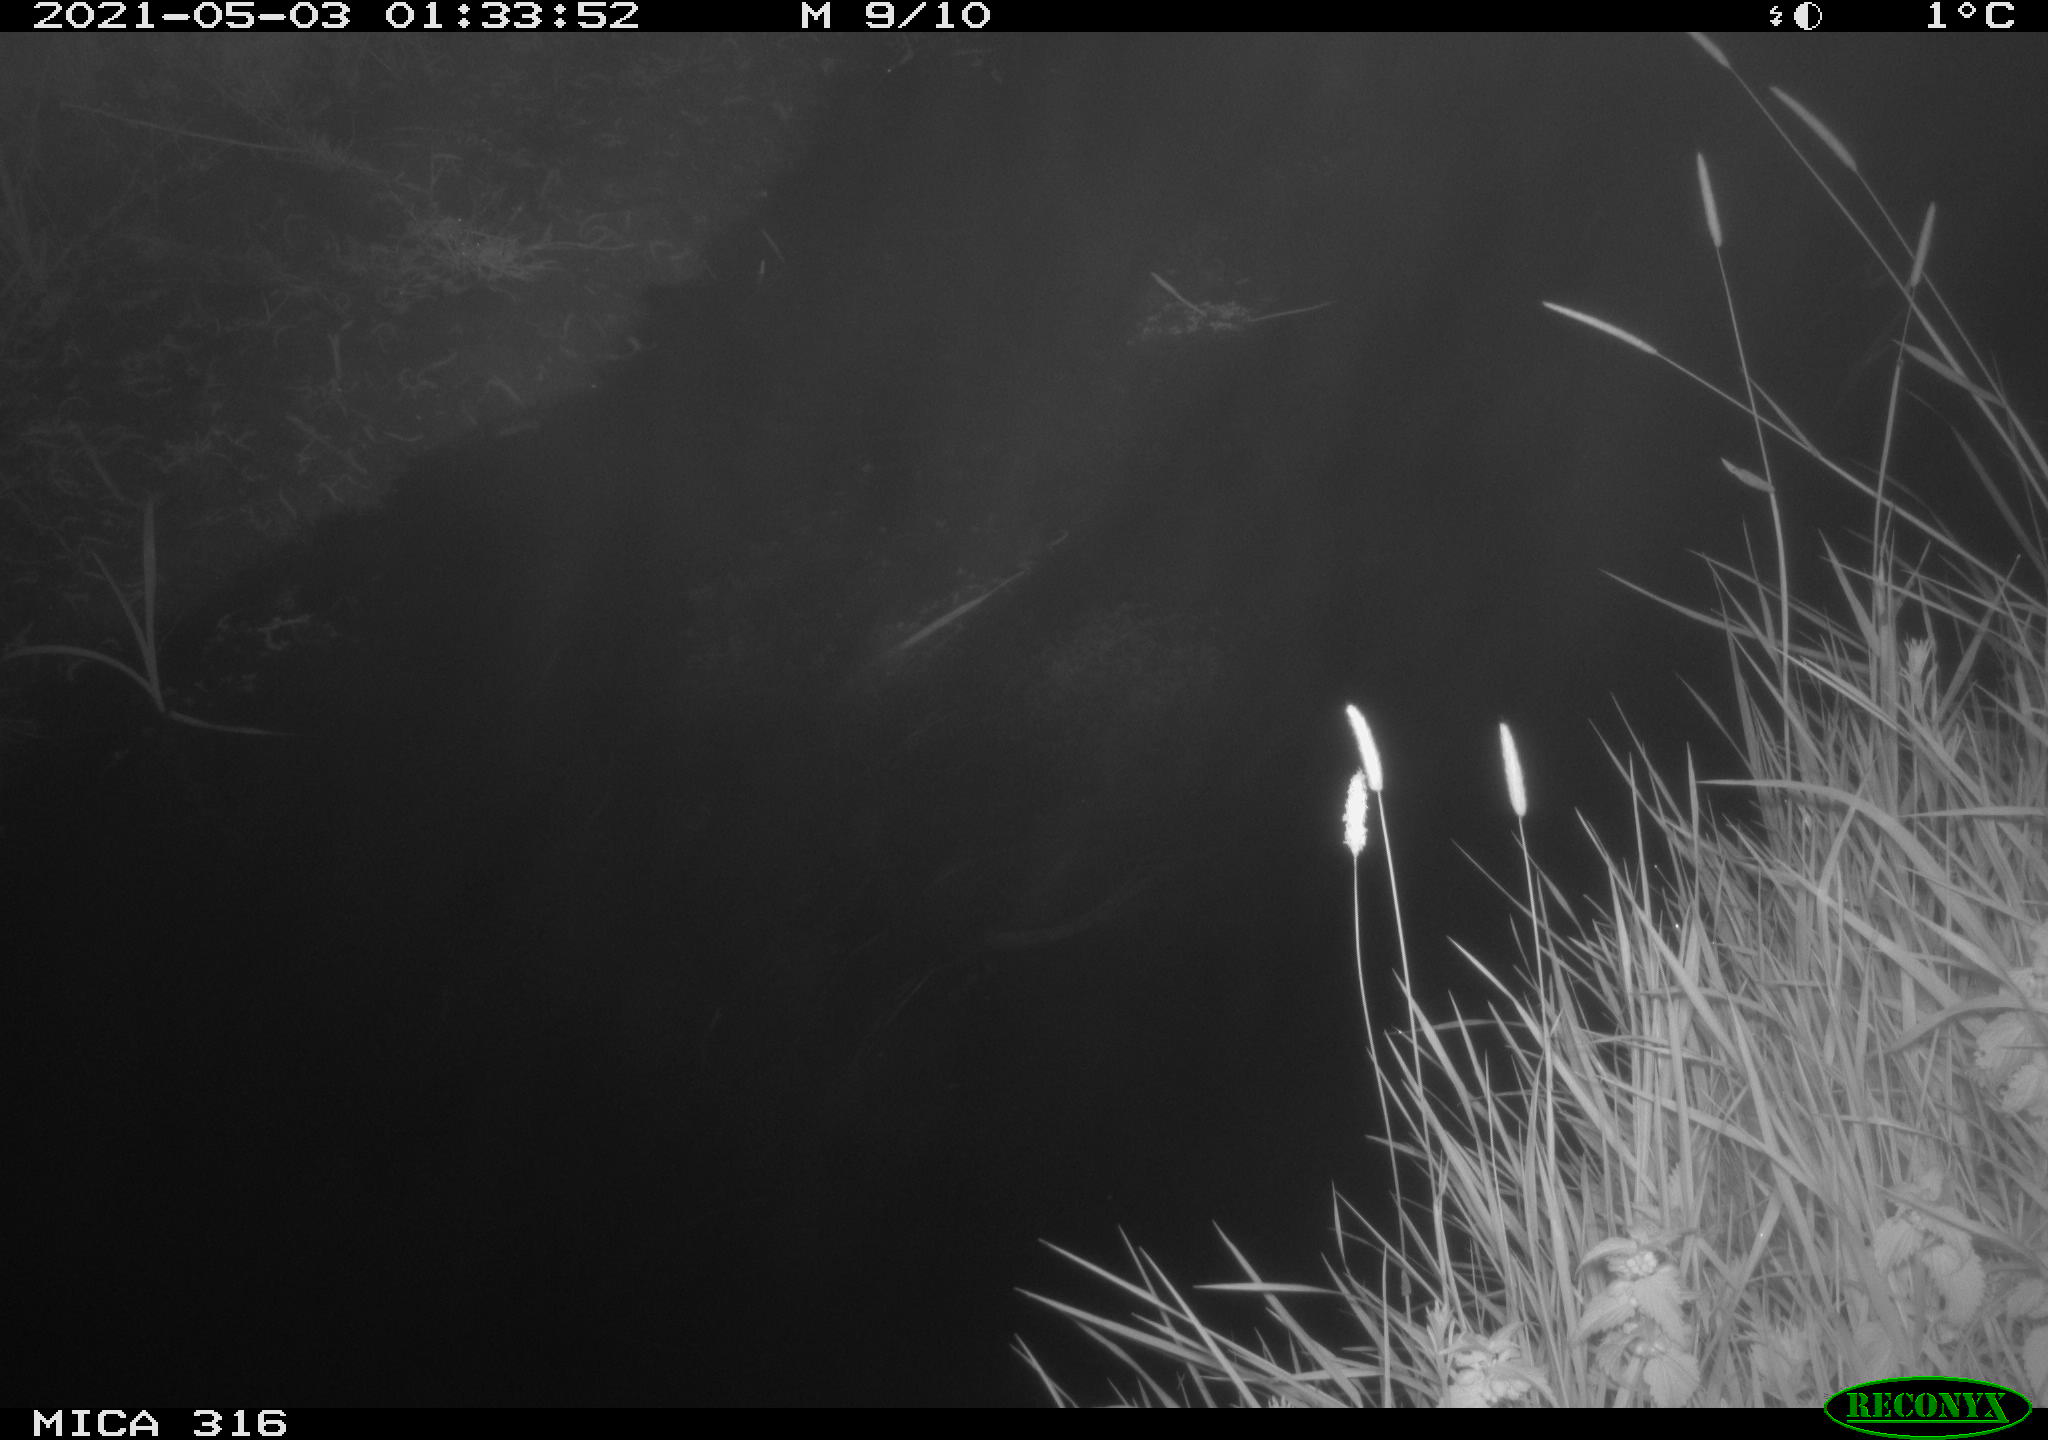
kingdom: Animalia
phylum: Chordata
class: Aves
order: Anseriformes
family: Anatidae
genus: Anas
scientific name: Anas platyrhynchos
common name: Mallard
